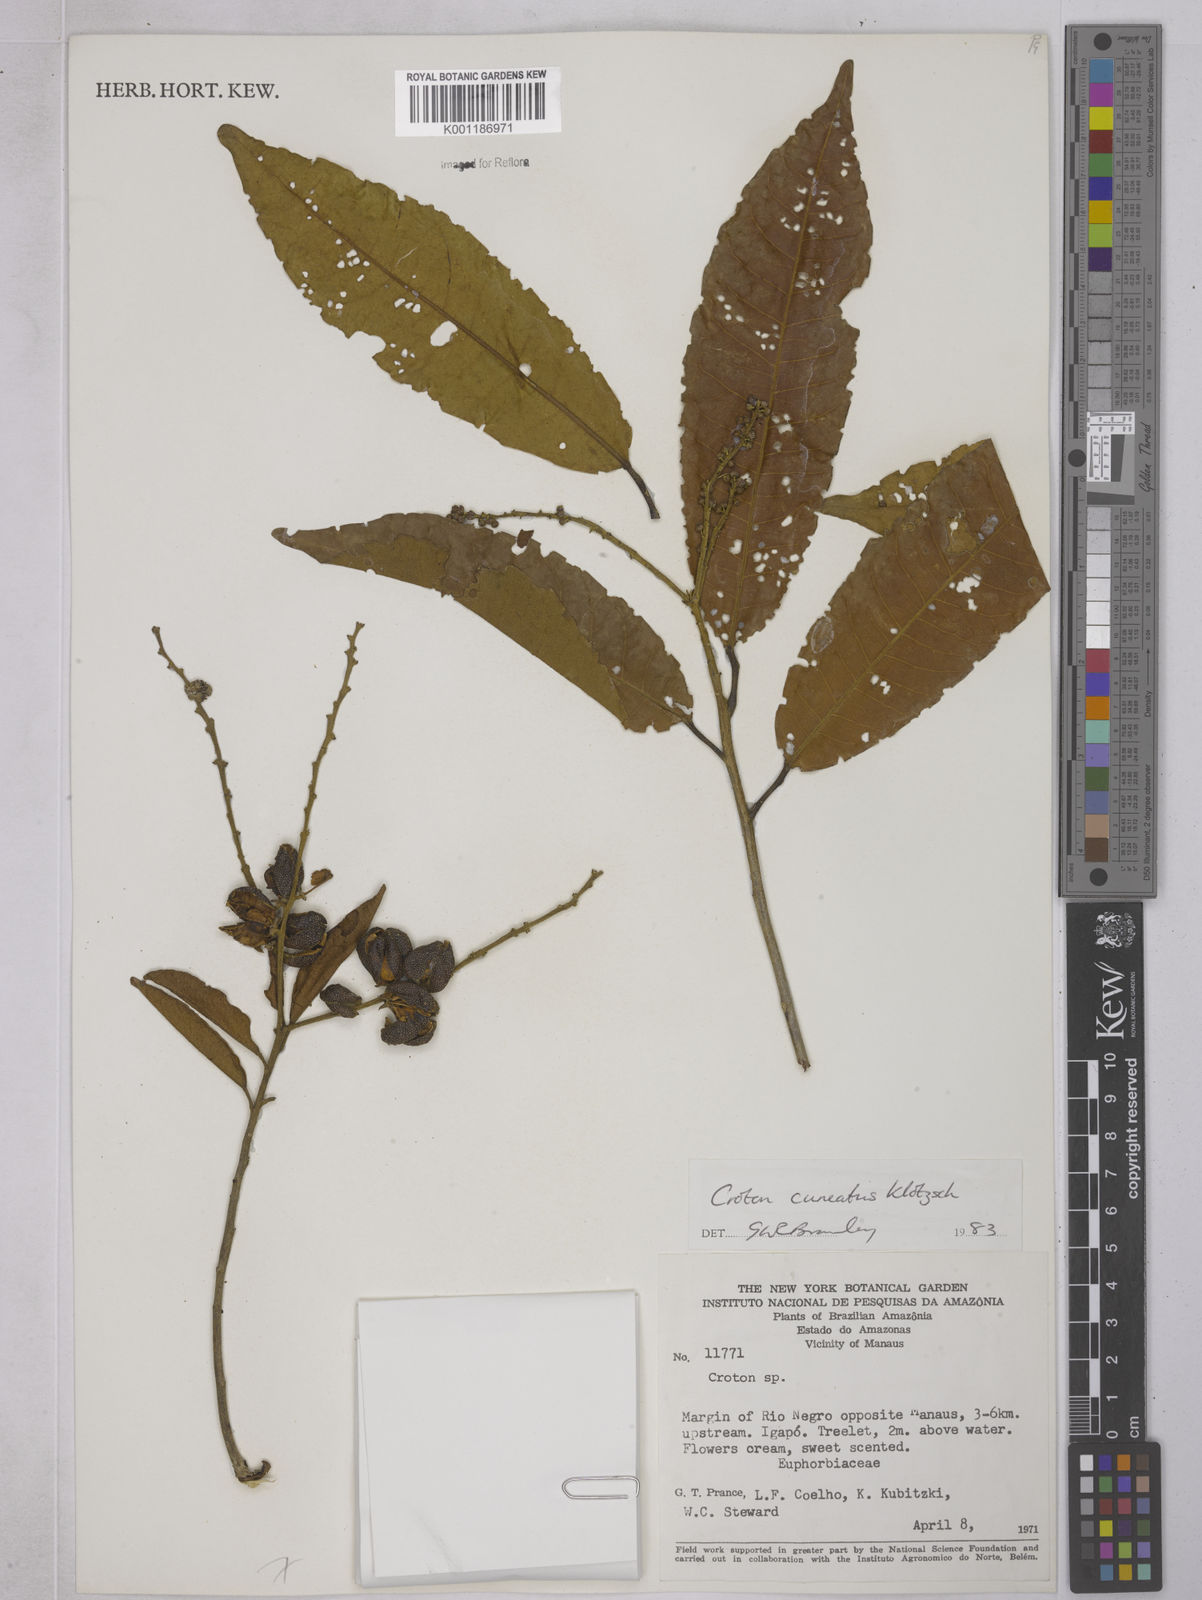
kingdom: Plantae
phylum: Tracheophyta
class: Magnoliopsida
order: Malpighiales
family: Euphorbiaceae
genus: Croton
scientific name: Croton
